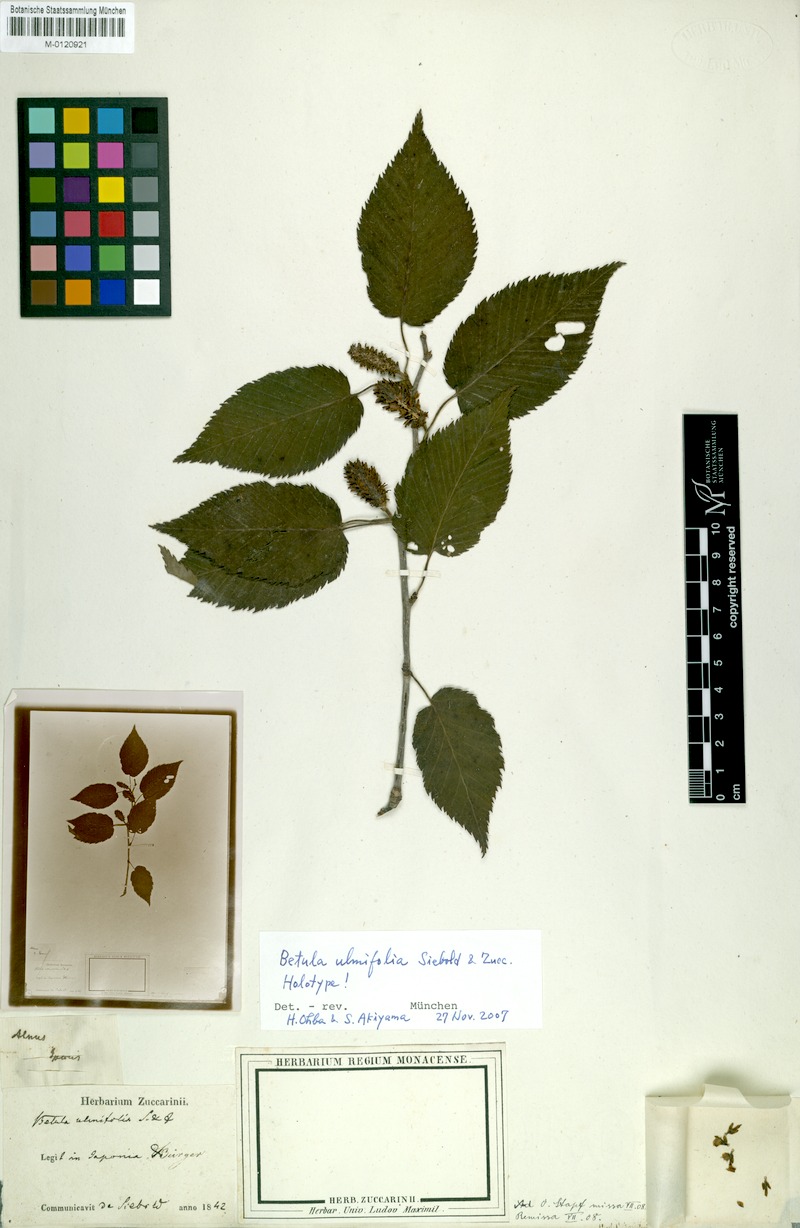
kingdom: Plantae
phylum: Tracheophyta
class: Magnoliopsida
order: Fagales
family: Betulaceae
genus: Betula
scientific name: Betula grossa
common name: Japanese cherry birch
